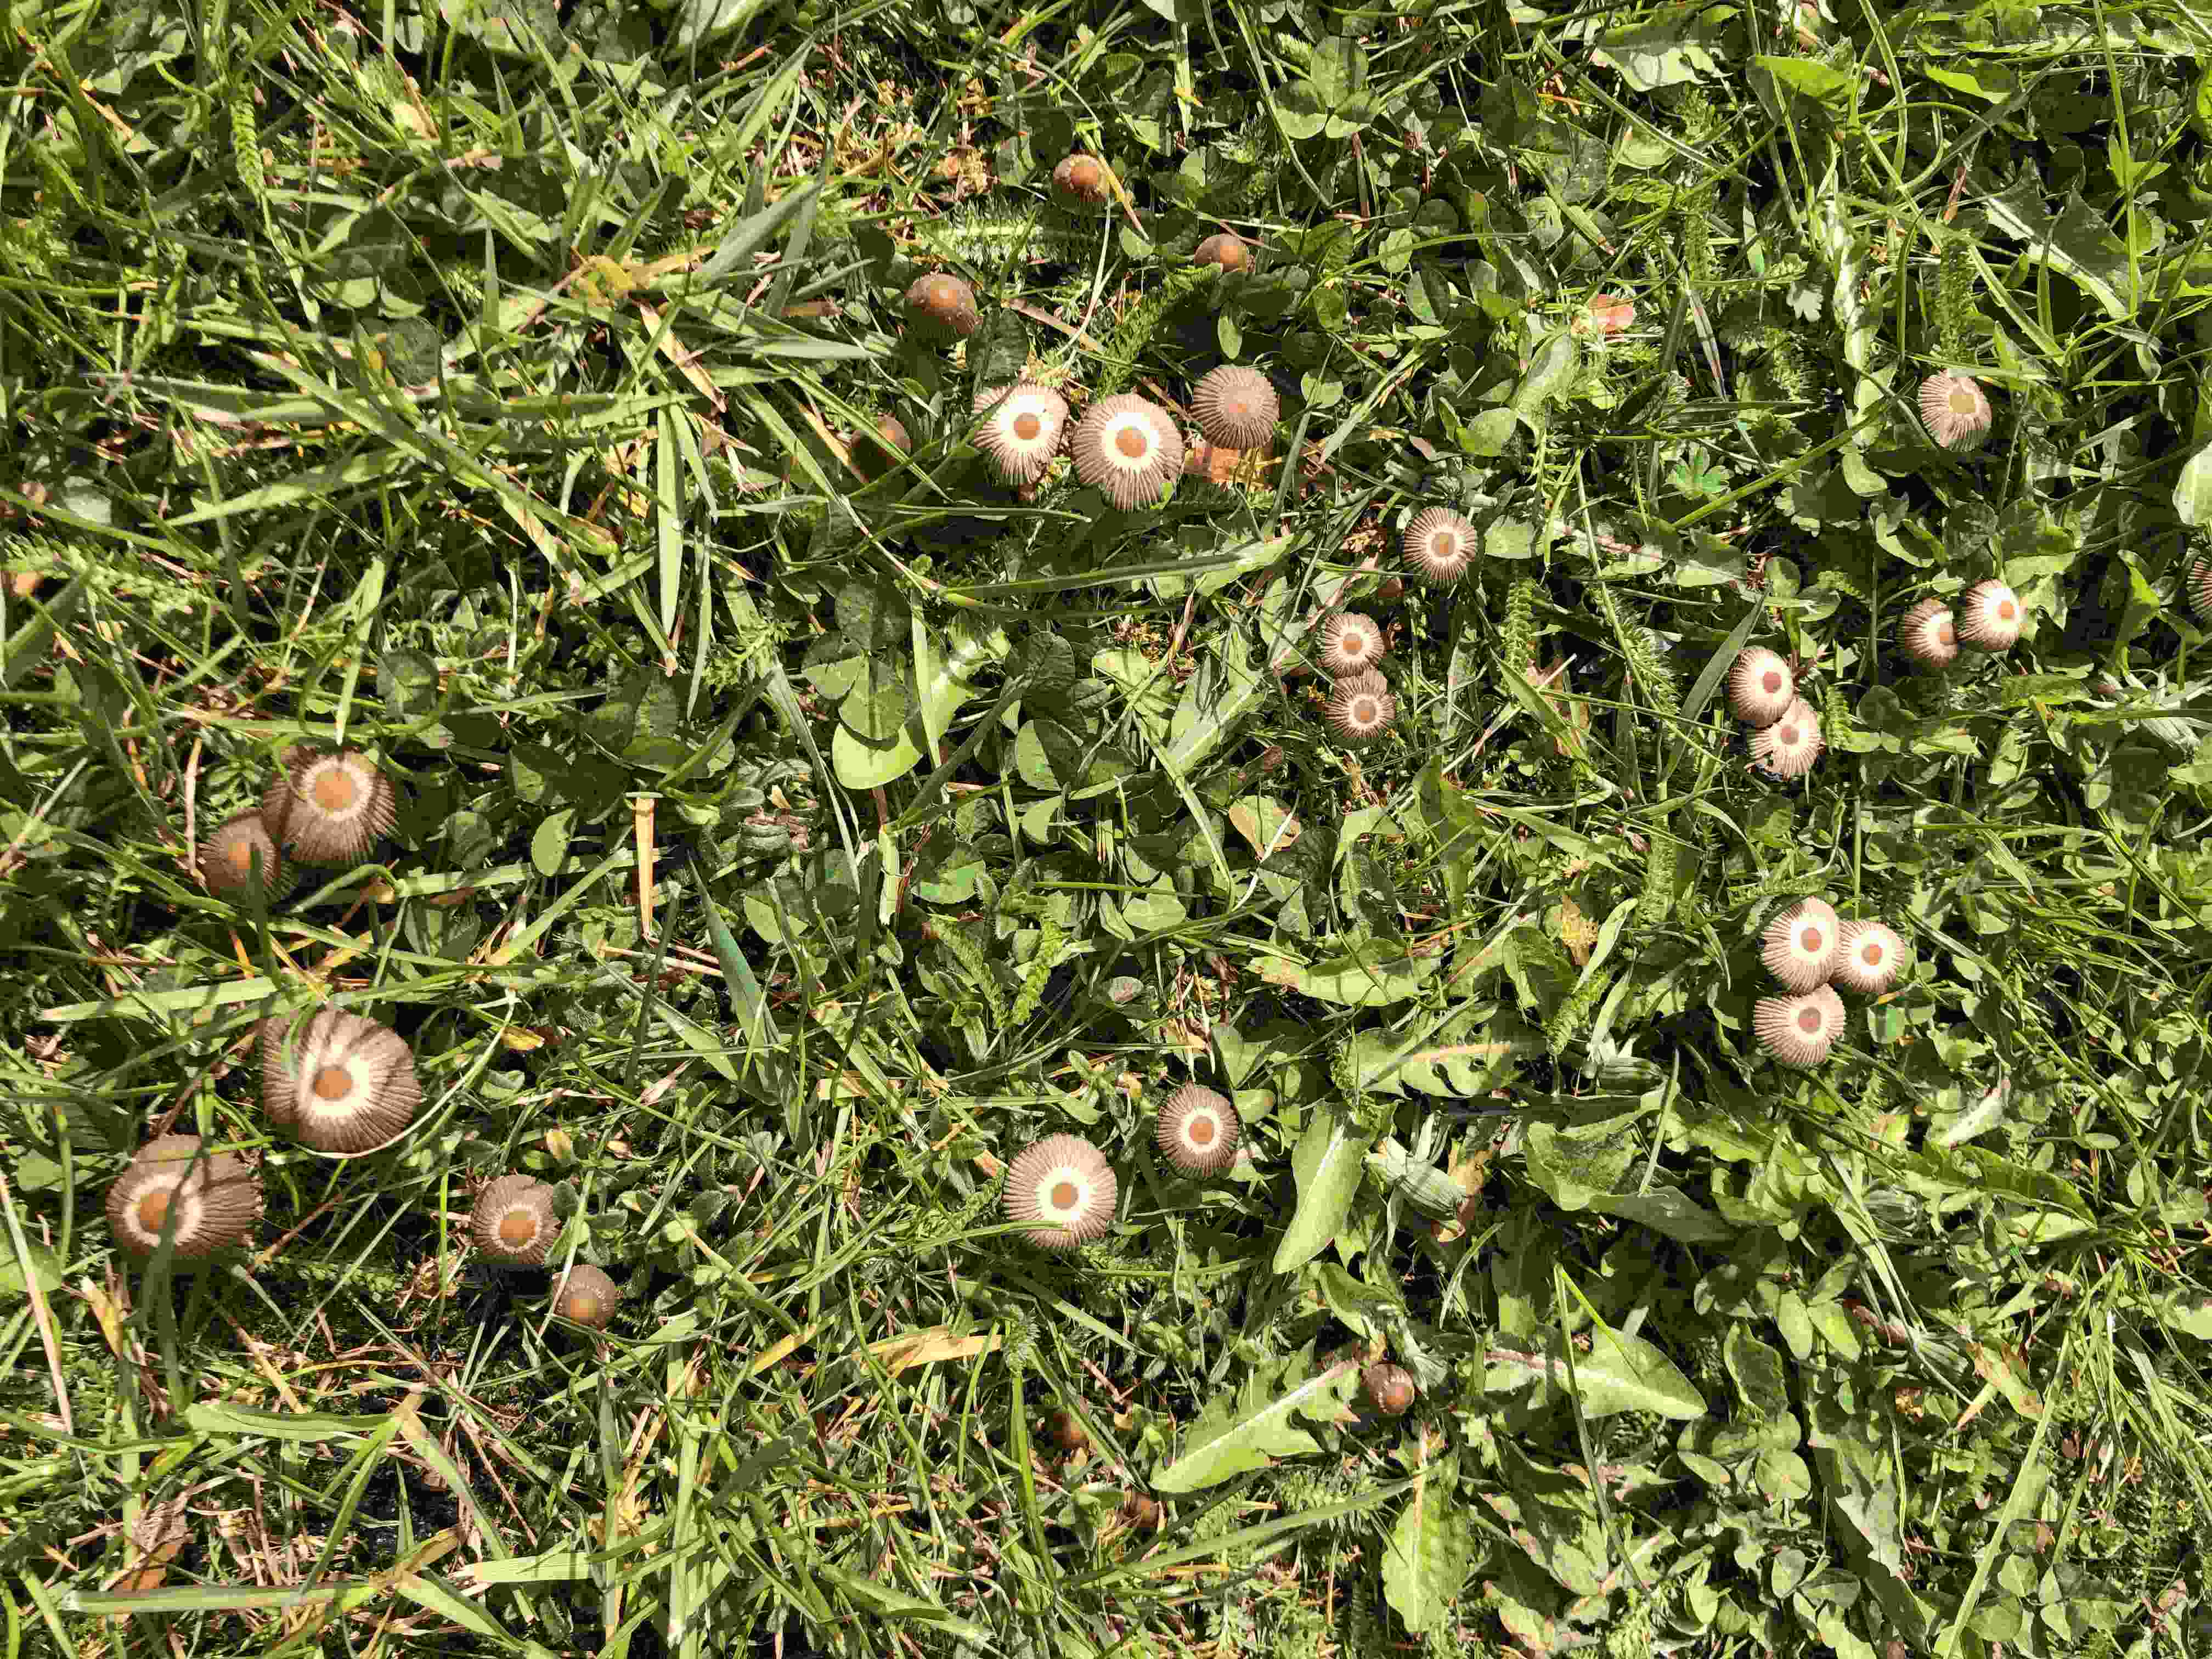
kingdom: Fungi
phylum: Basidiomycota
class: Agaricomycetes
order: Agaricales
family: Psathyrellaceae
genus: Parasola
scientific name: Parasola
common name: hjulhat
